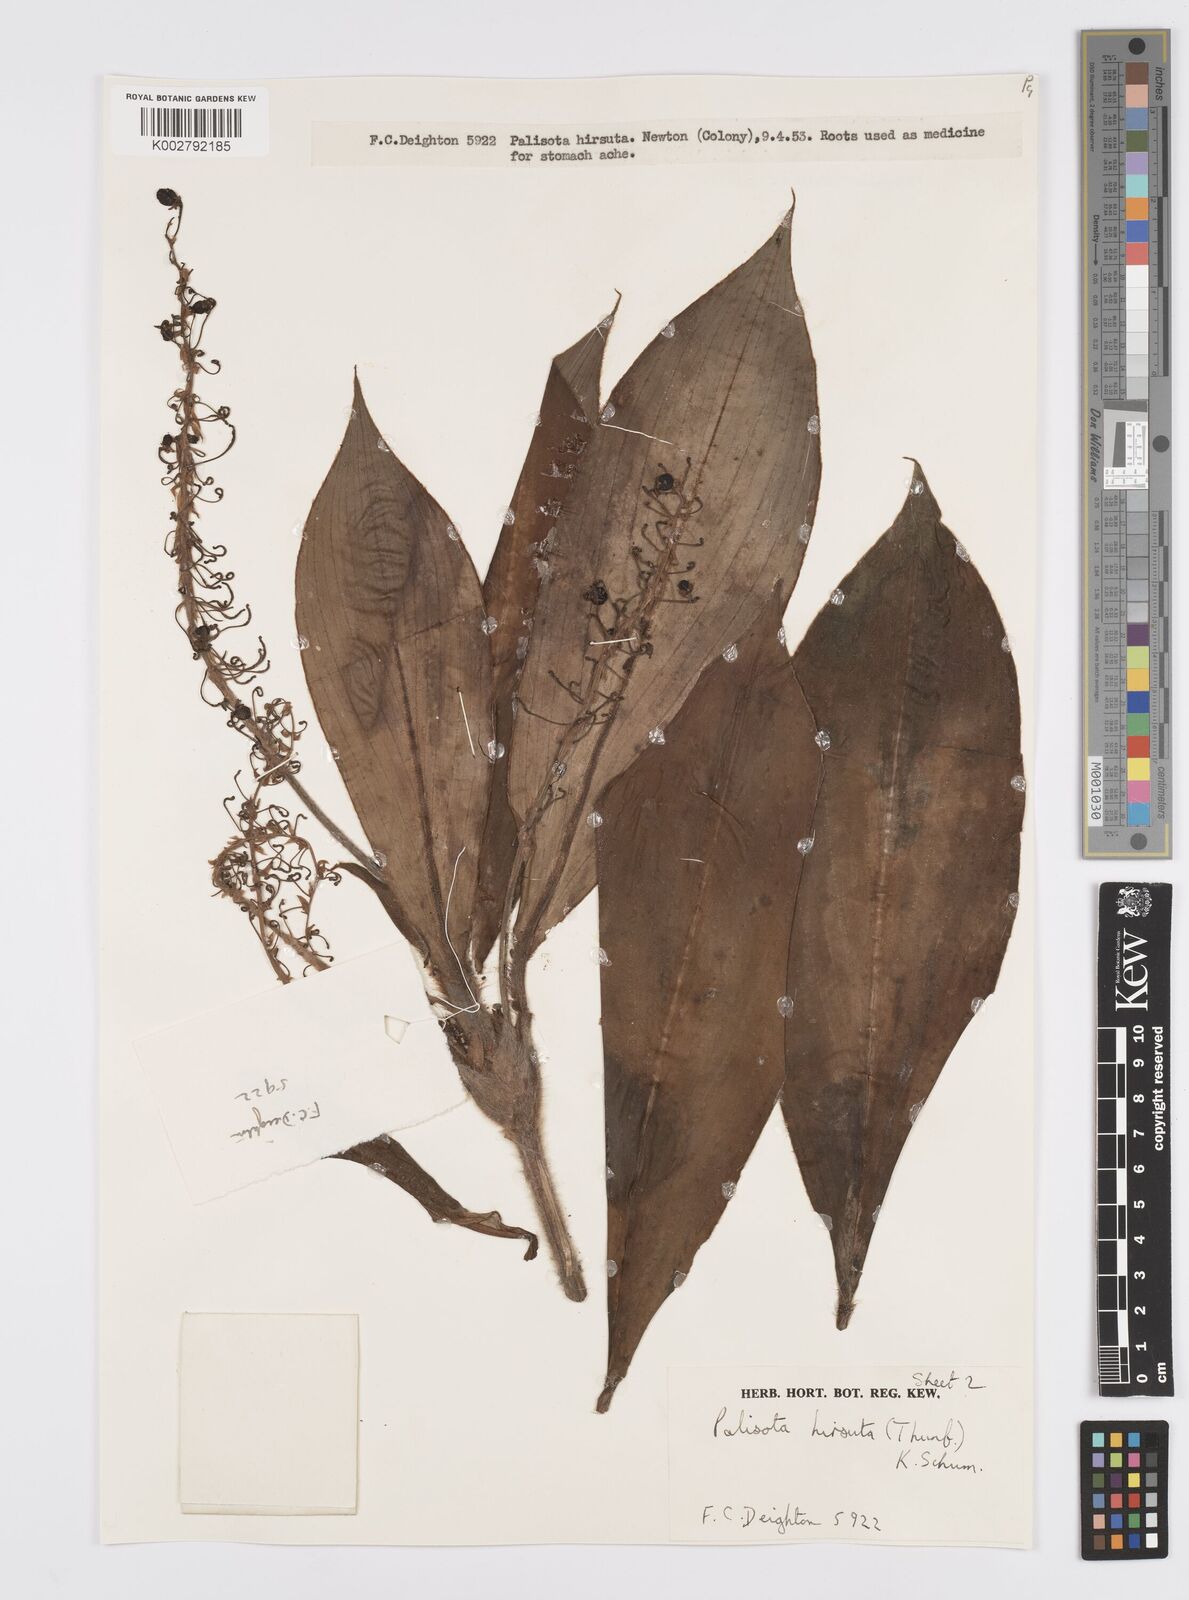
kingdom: Plantae
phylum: Tracheophyta
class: Liliopsida
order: Commelinales
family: Commelinaceae
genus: Palisota
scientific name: Palisota hirsuta
